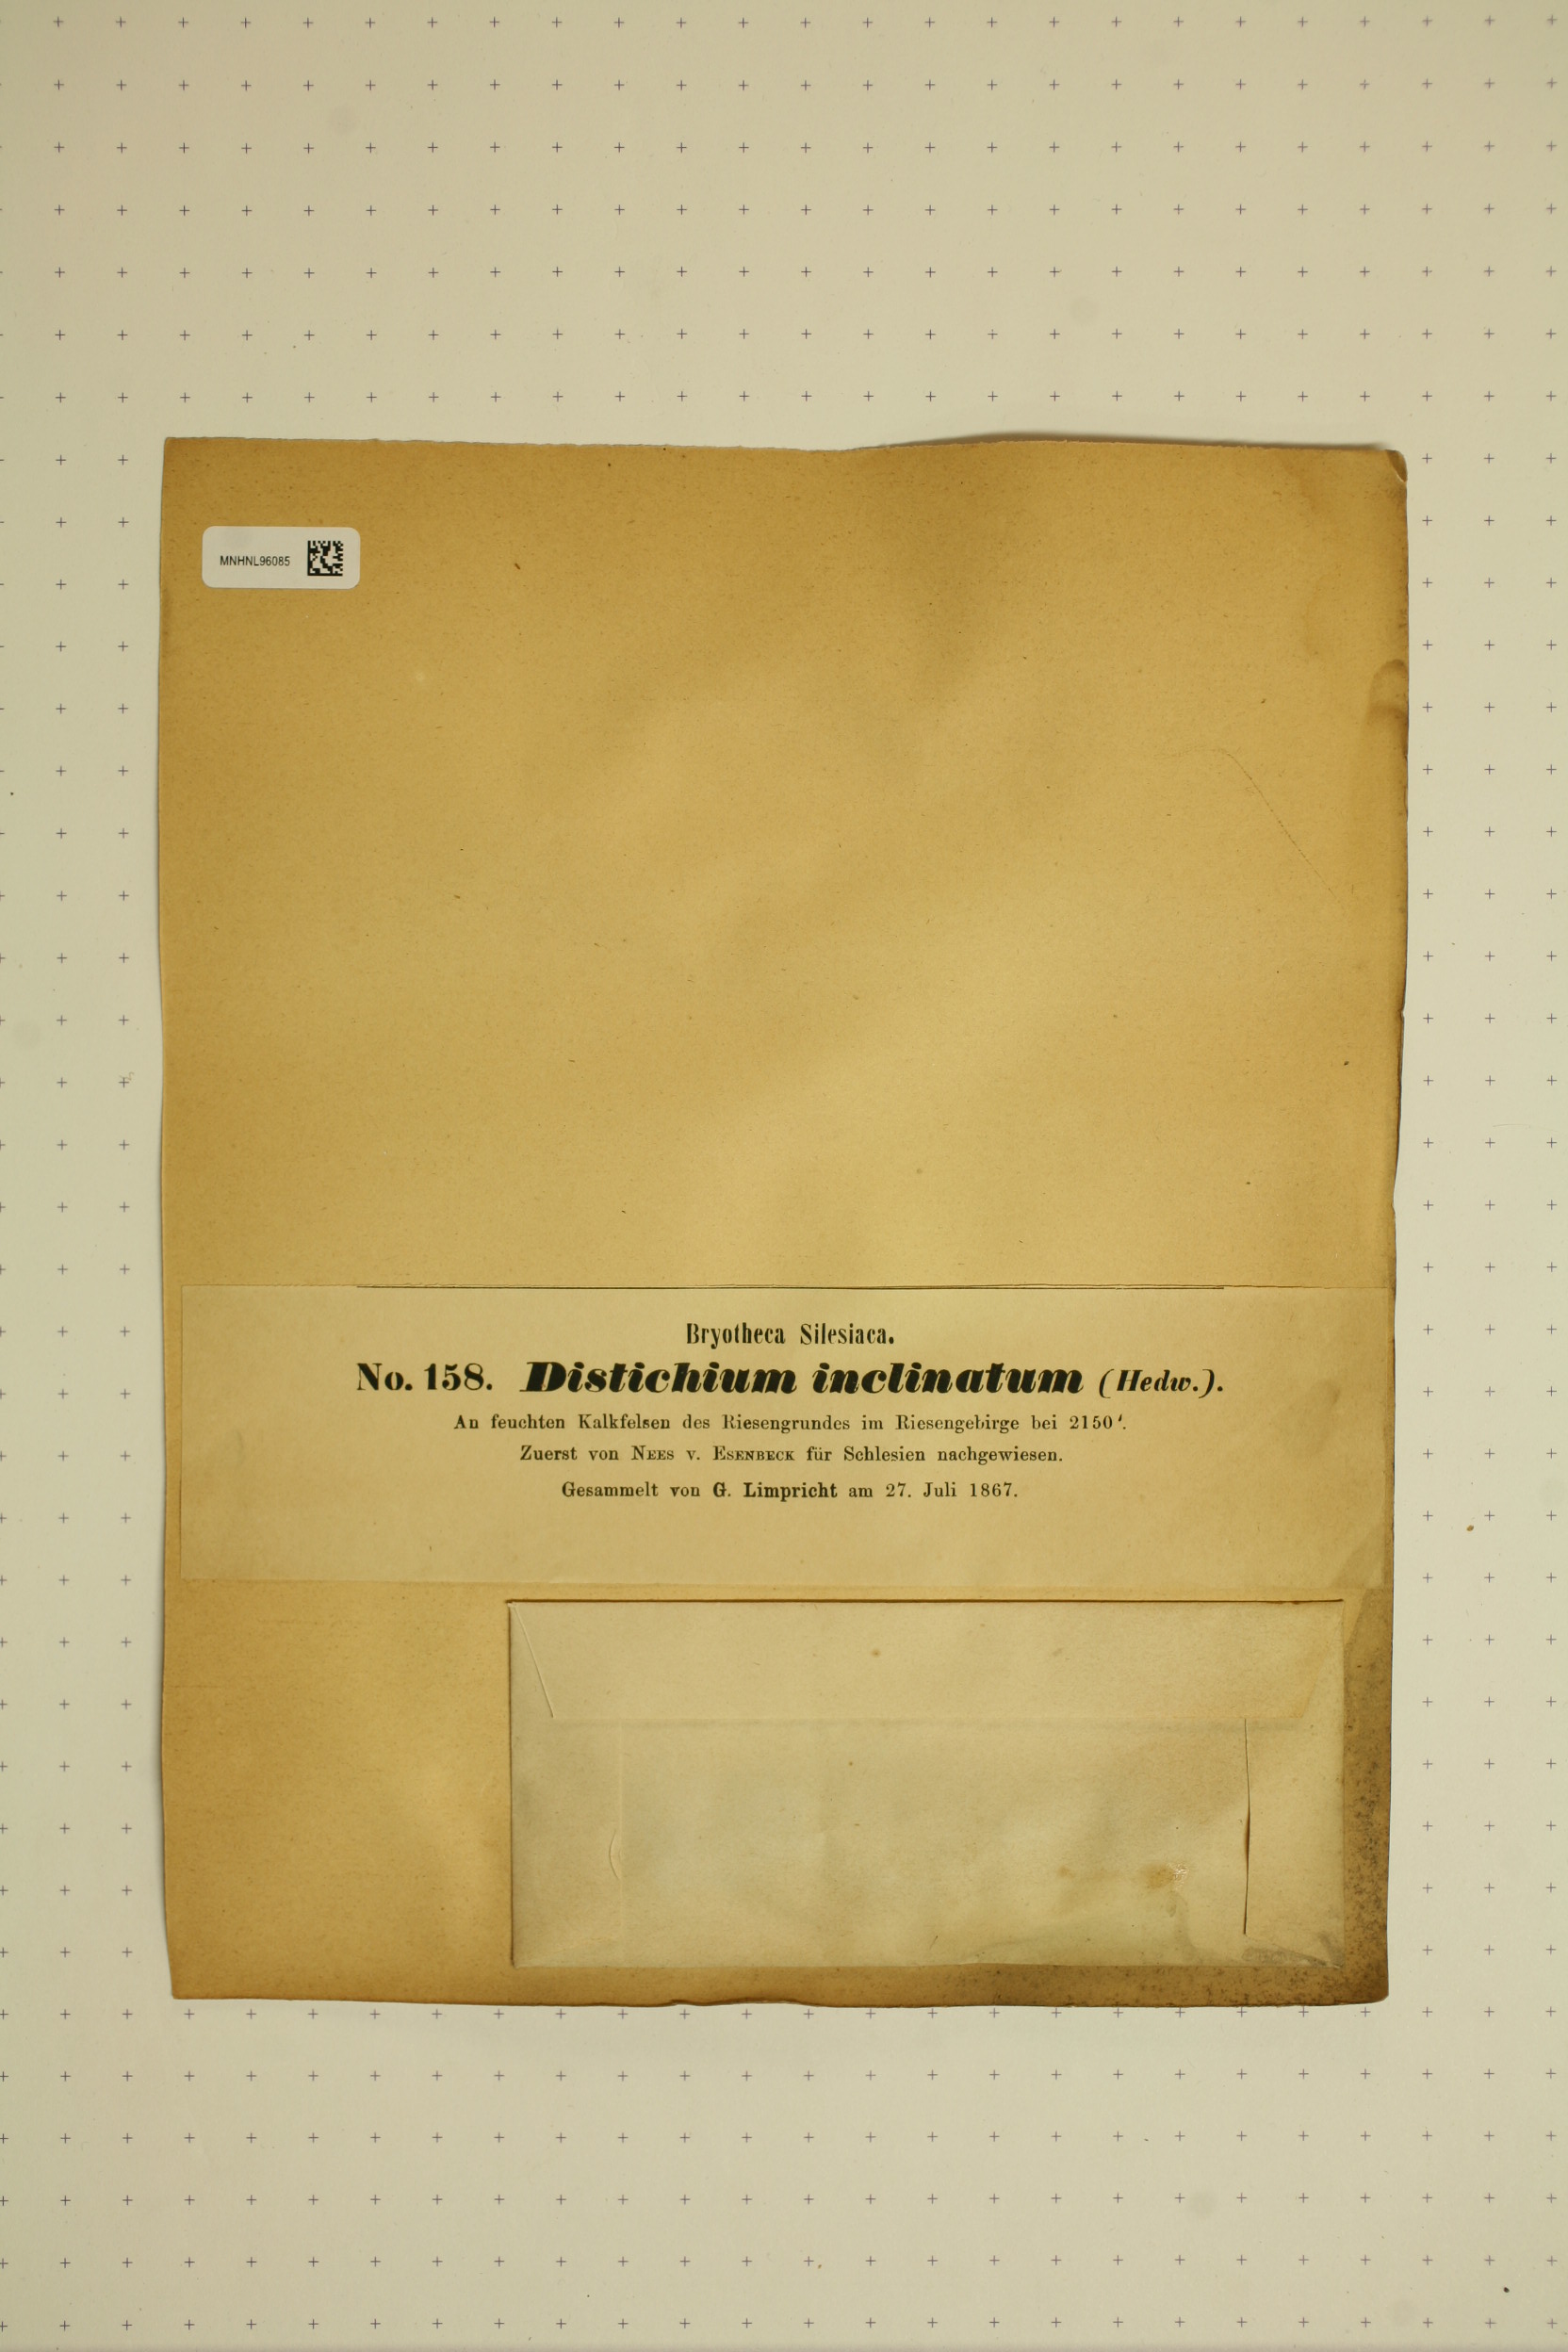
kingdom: Plantae
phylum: Bryophyta
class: Bryopsida
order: Scouleriales
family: Distichiaceae
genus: Distichium
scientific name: Distichium inclinatum
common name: Inclined iris moss
